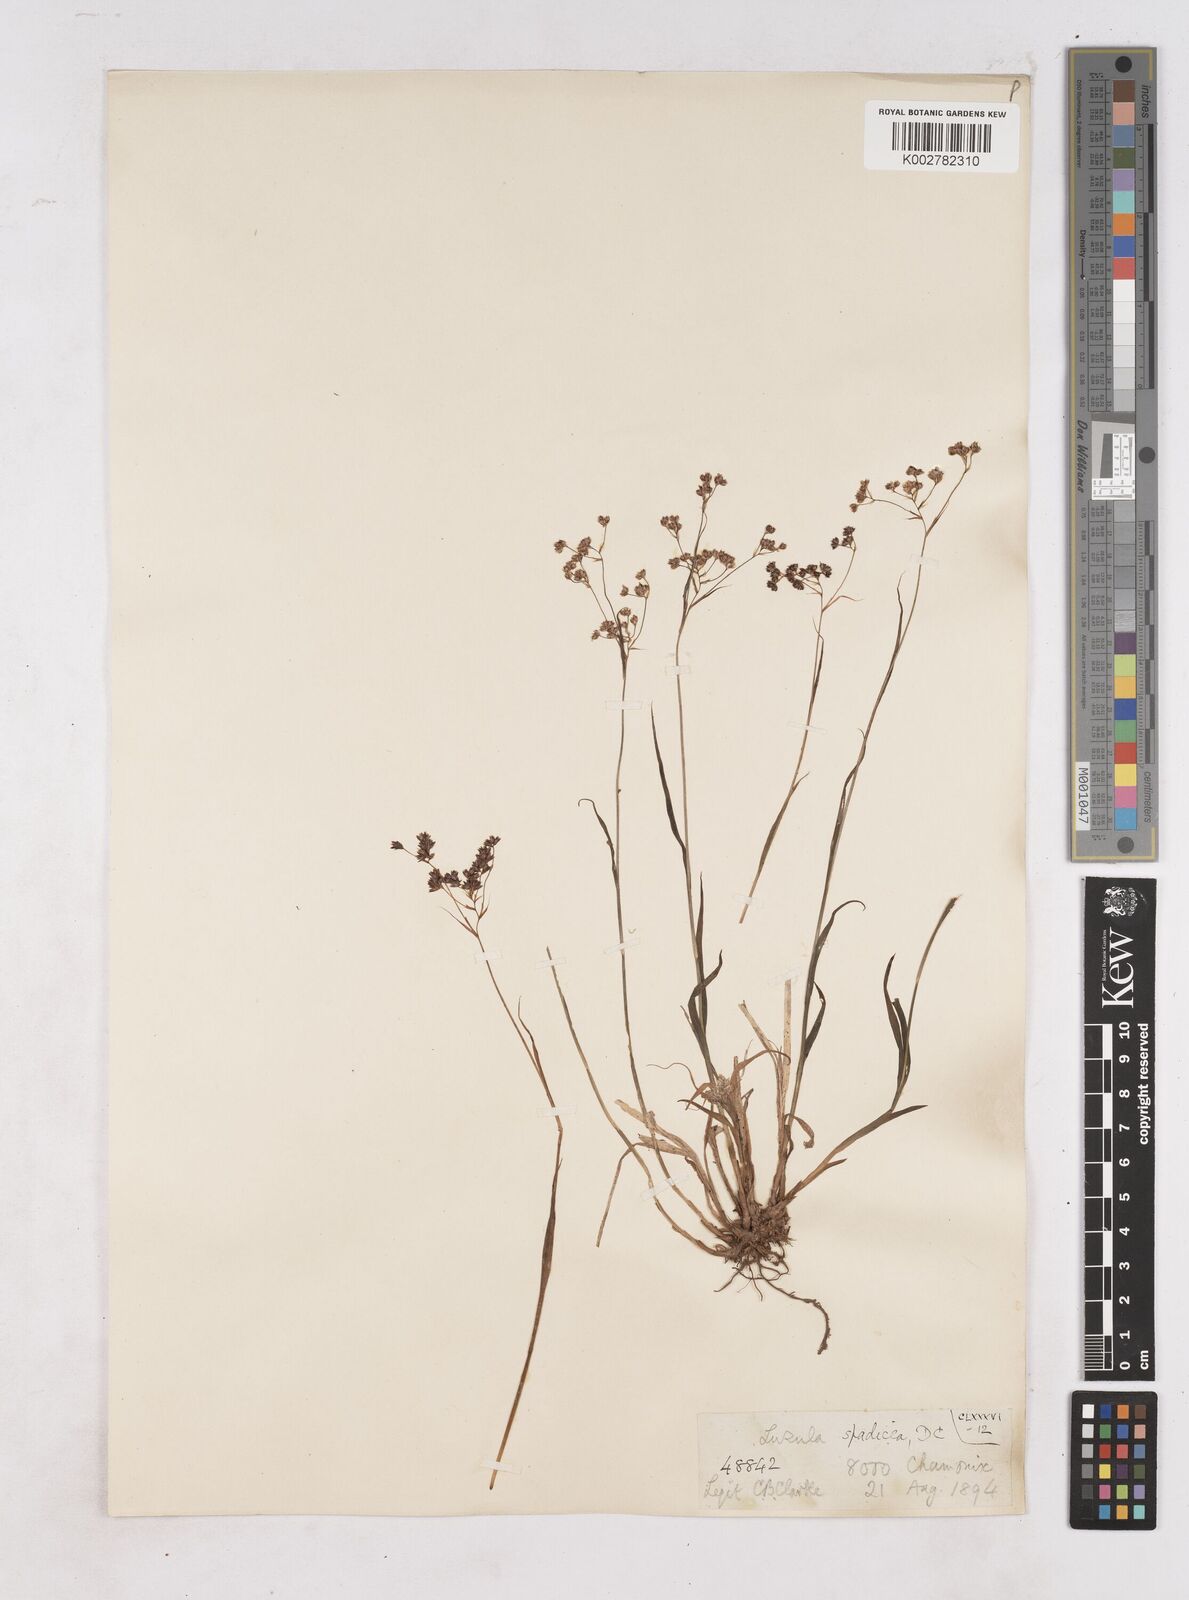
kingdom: Plantae
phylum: Tracheophyta
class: Liliopsida
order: Poales
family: Juncaceae
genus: Luzula
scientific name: Luzula alpinopilosa
